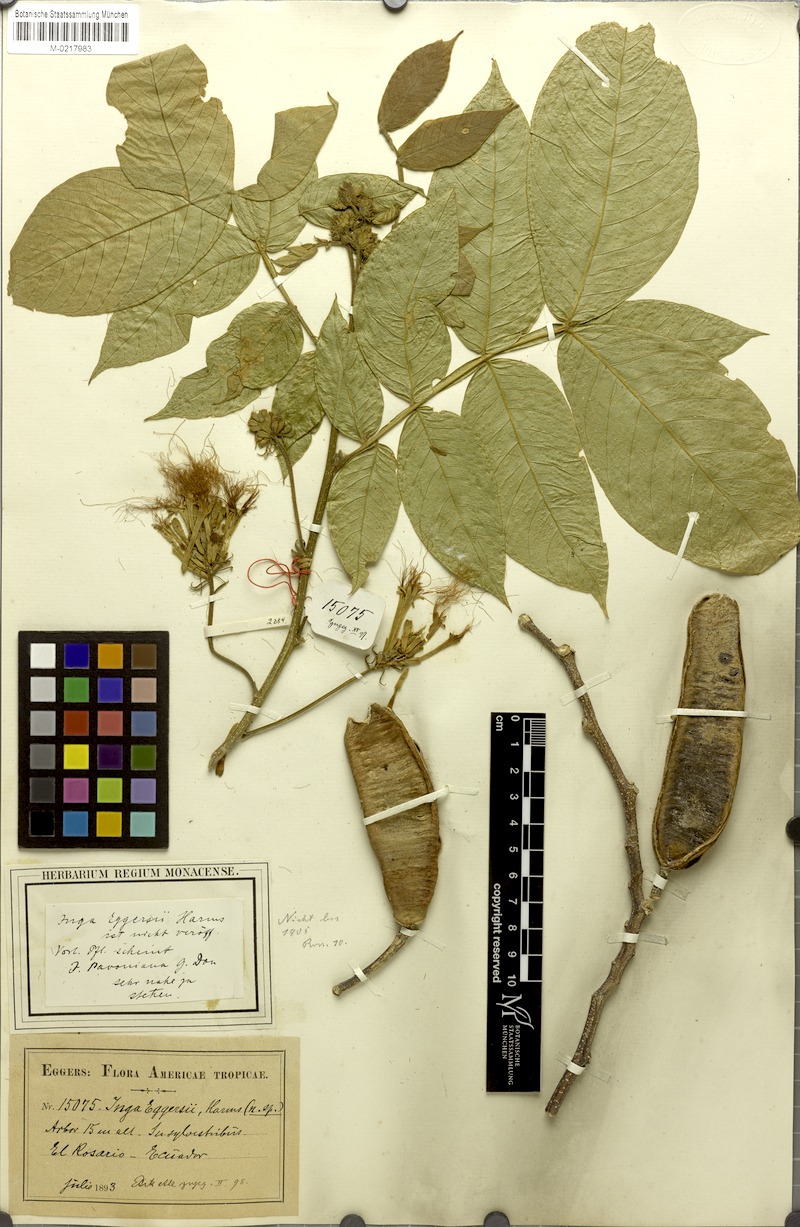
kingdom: Plantae
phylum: Tracheophyta
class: Magnoliopsida
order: Fabales
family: Fabaceae
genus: Inga
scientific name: Inga sapindoides
